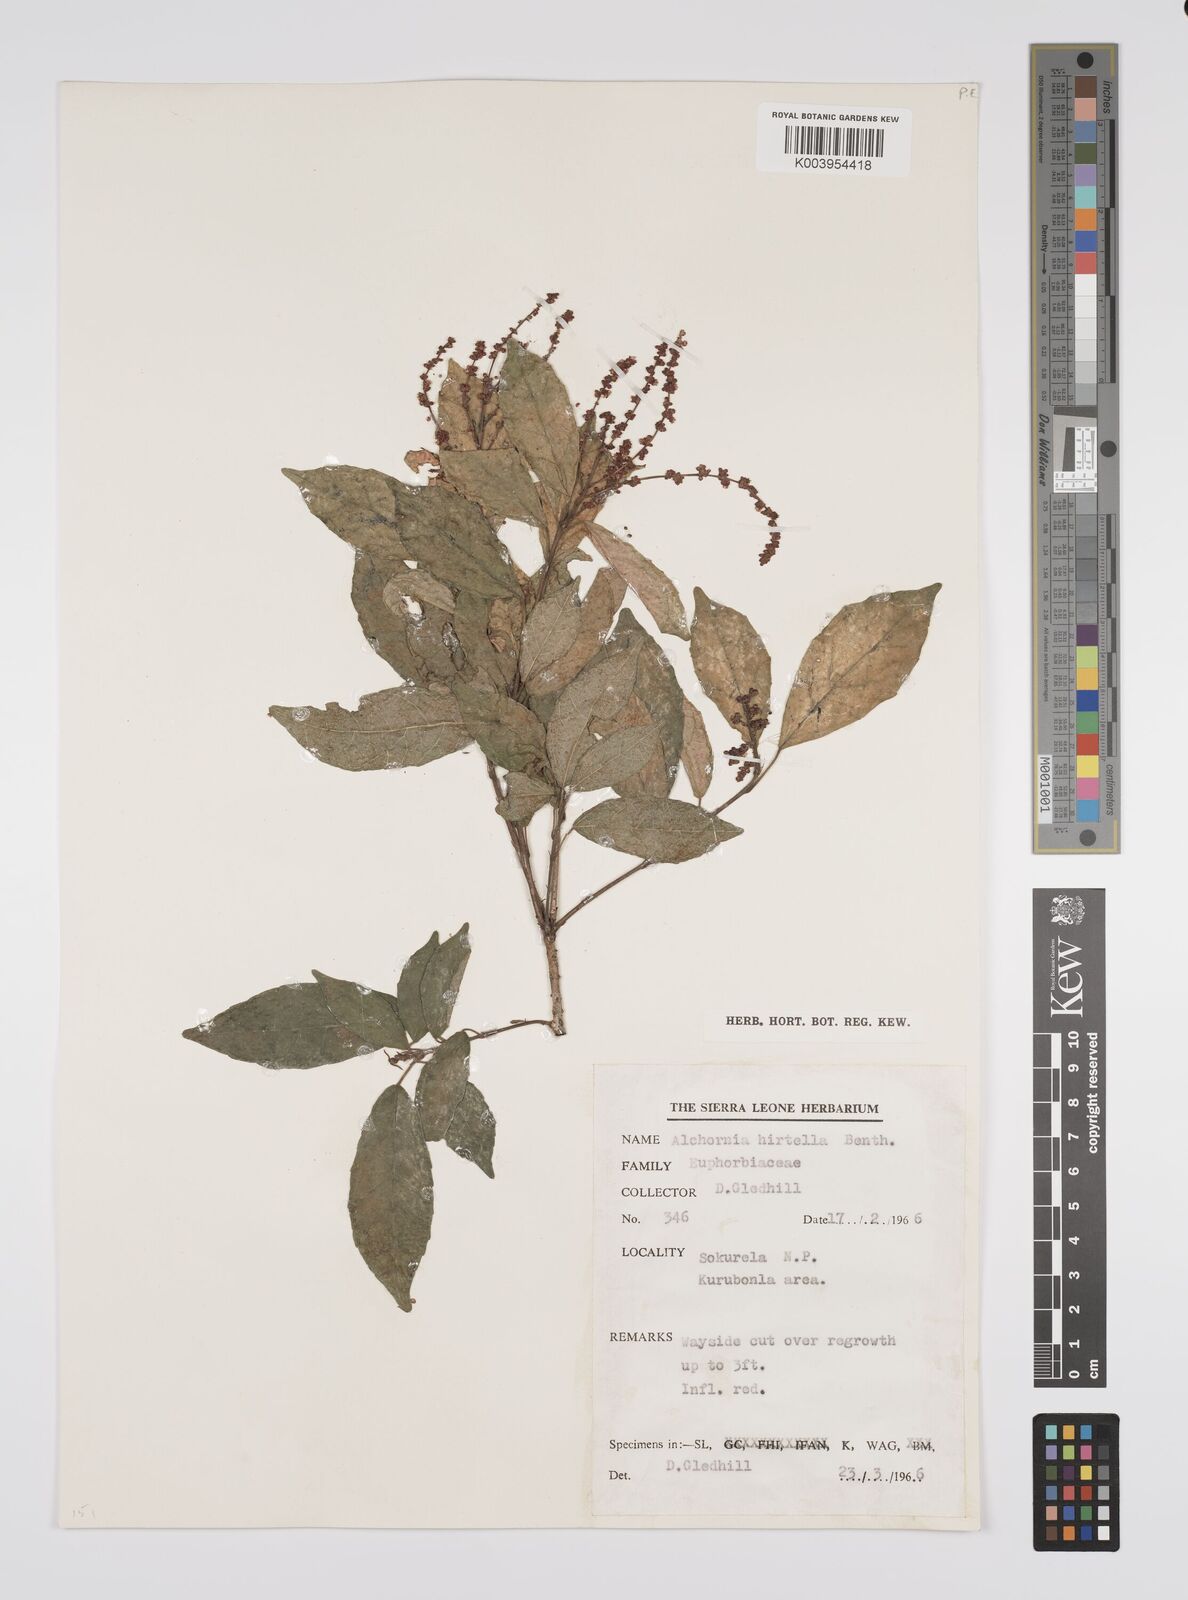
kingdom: Plantae
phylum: Tracheophyta
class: Magnoliopsida
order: Malpighiales
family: Euphorbiaceae
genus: Alchornea
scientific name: Alchornea hirtella
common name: Forest bead-string
